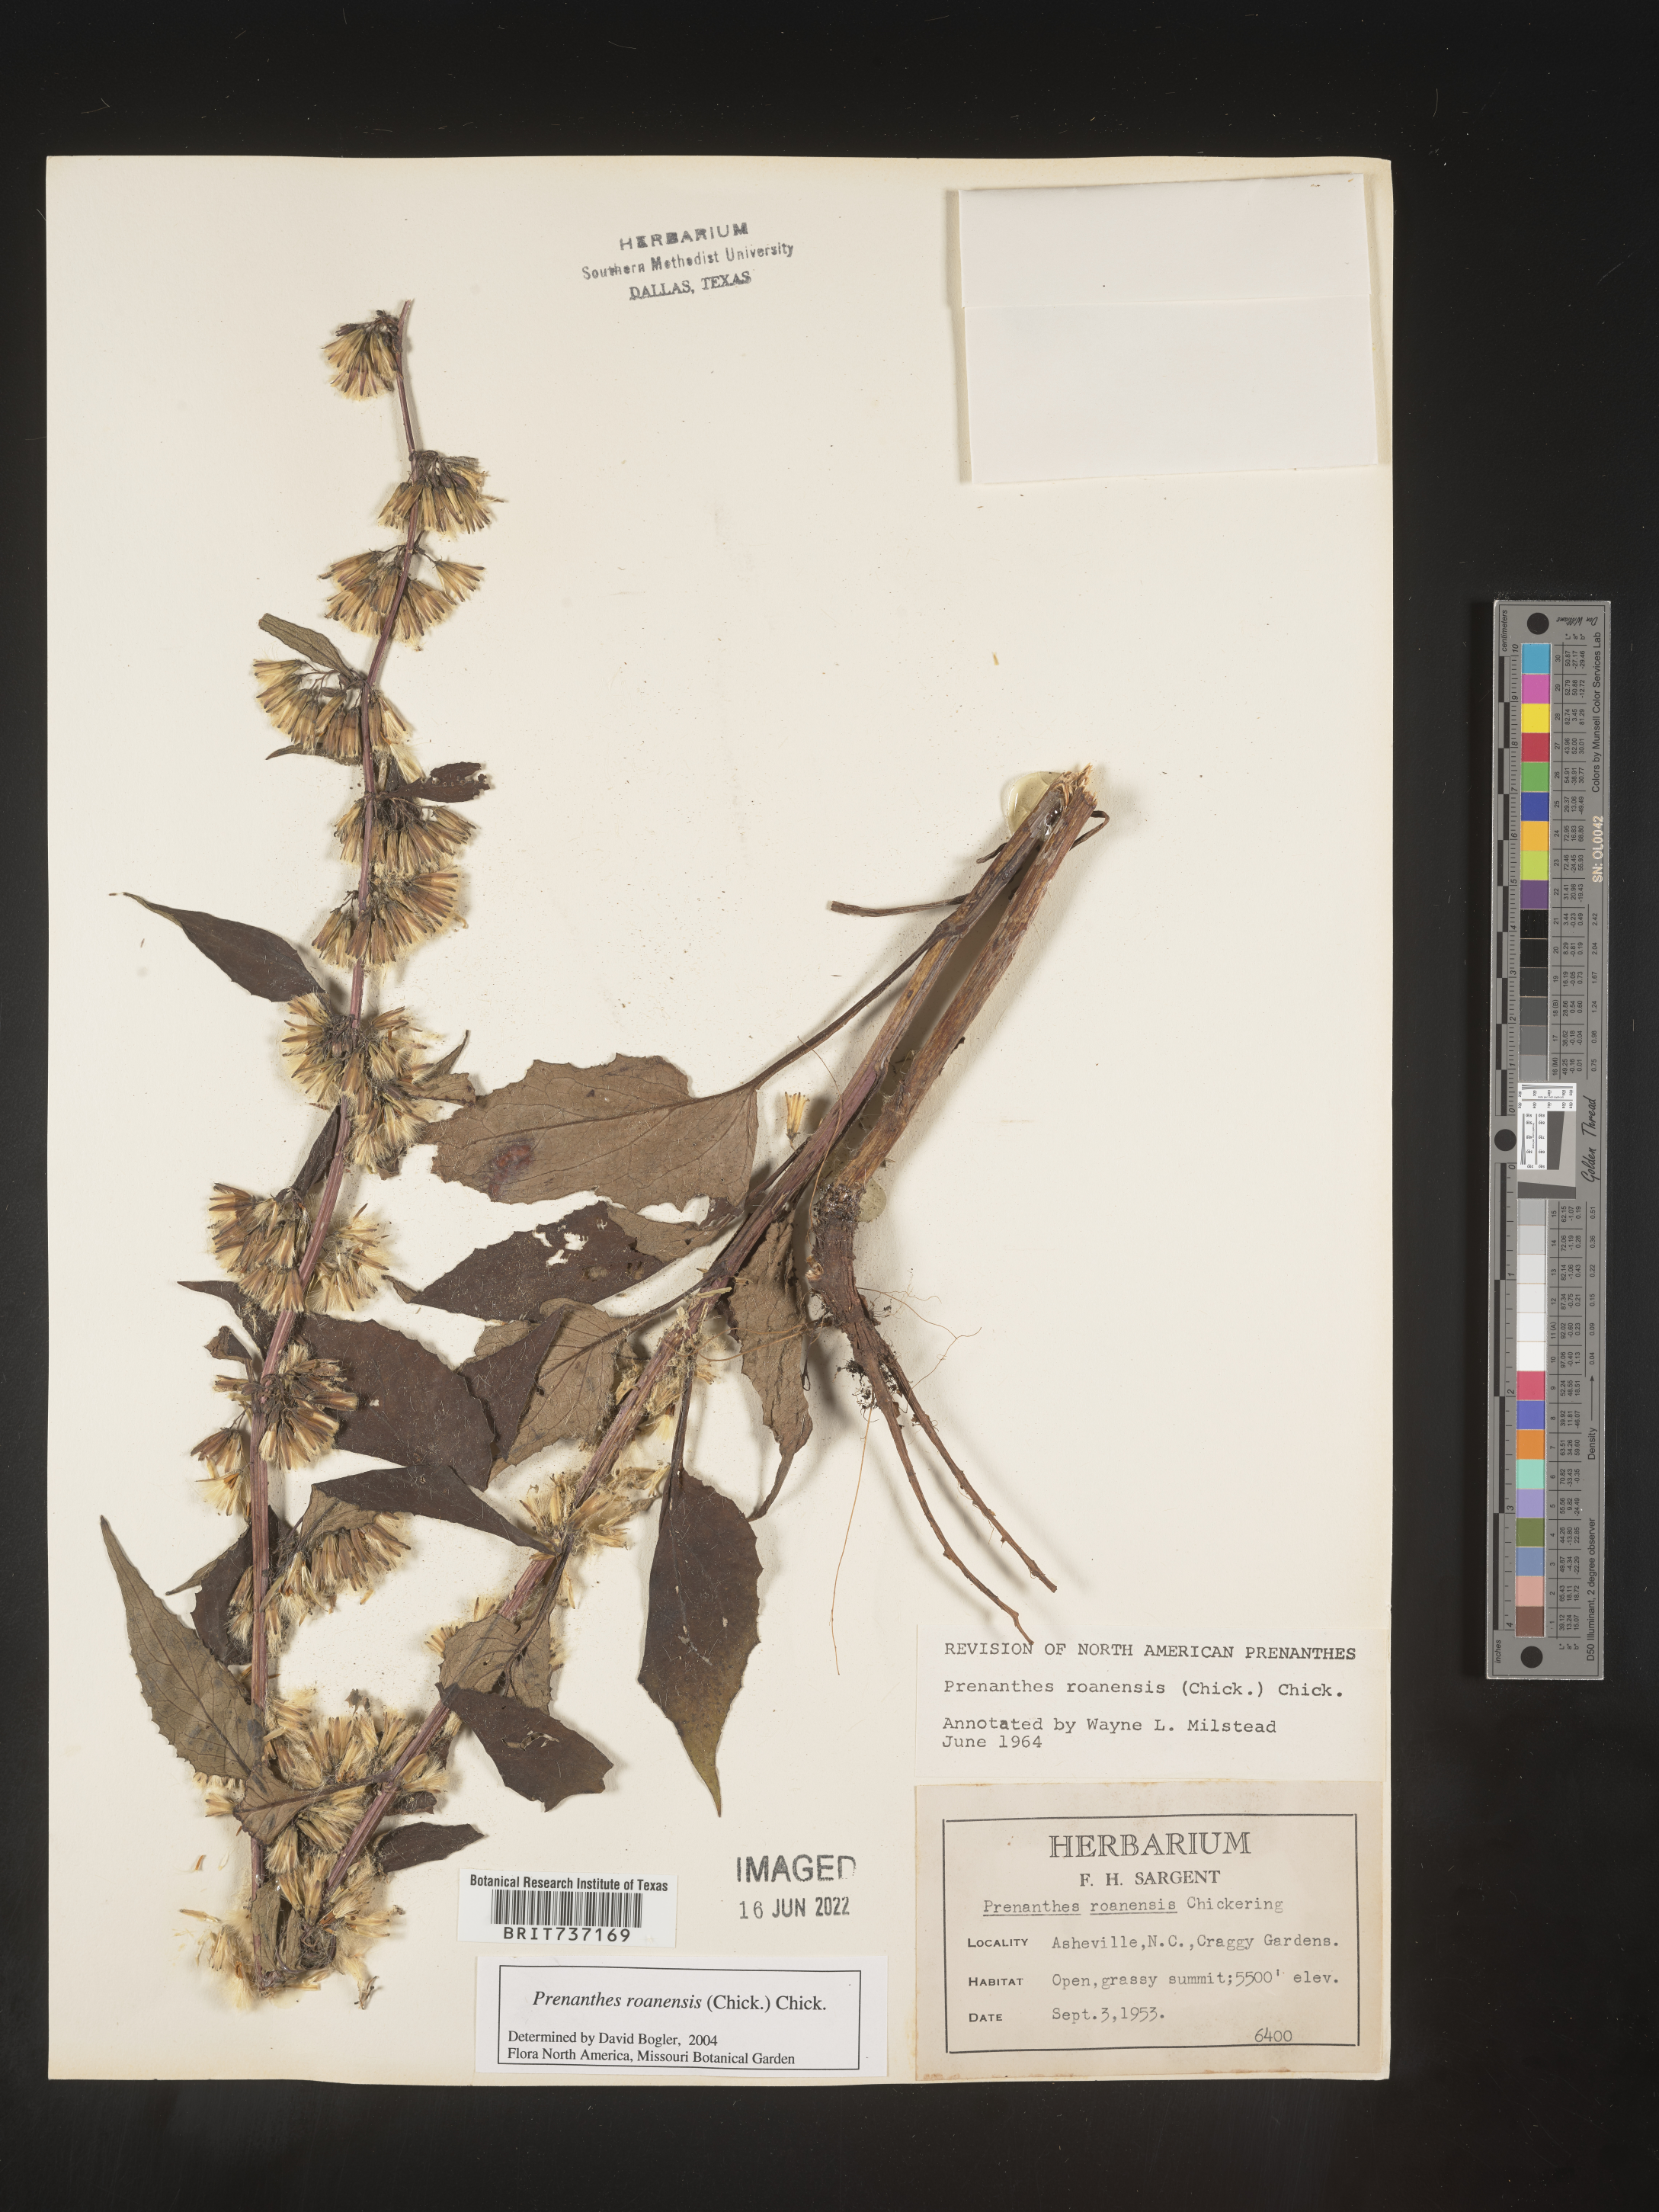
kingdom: Plantae
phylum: Tracheophyta
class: Magnoliopsida
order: Asterales
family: Asteraceae
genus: Prenanthes
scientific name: Prenanthes
